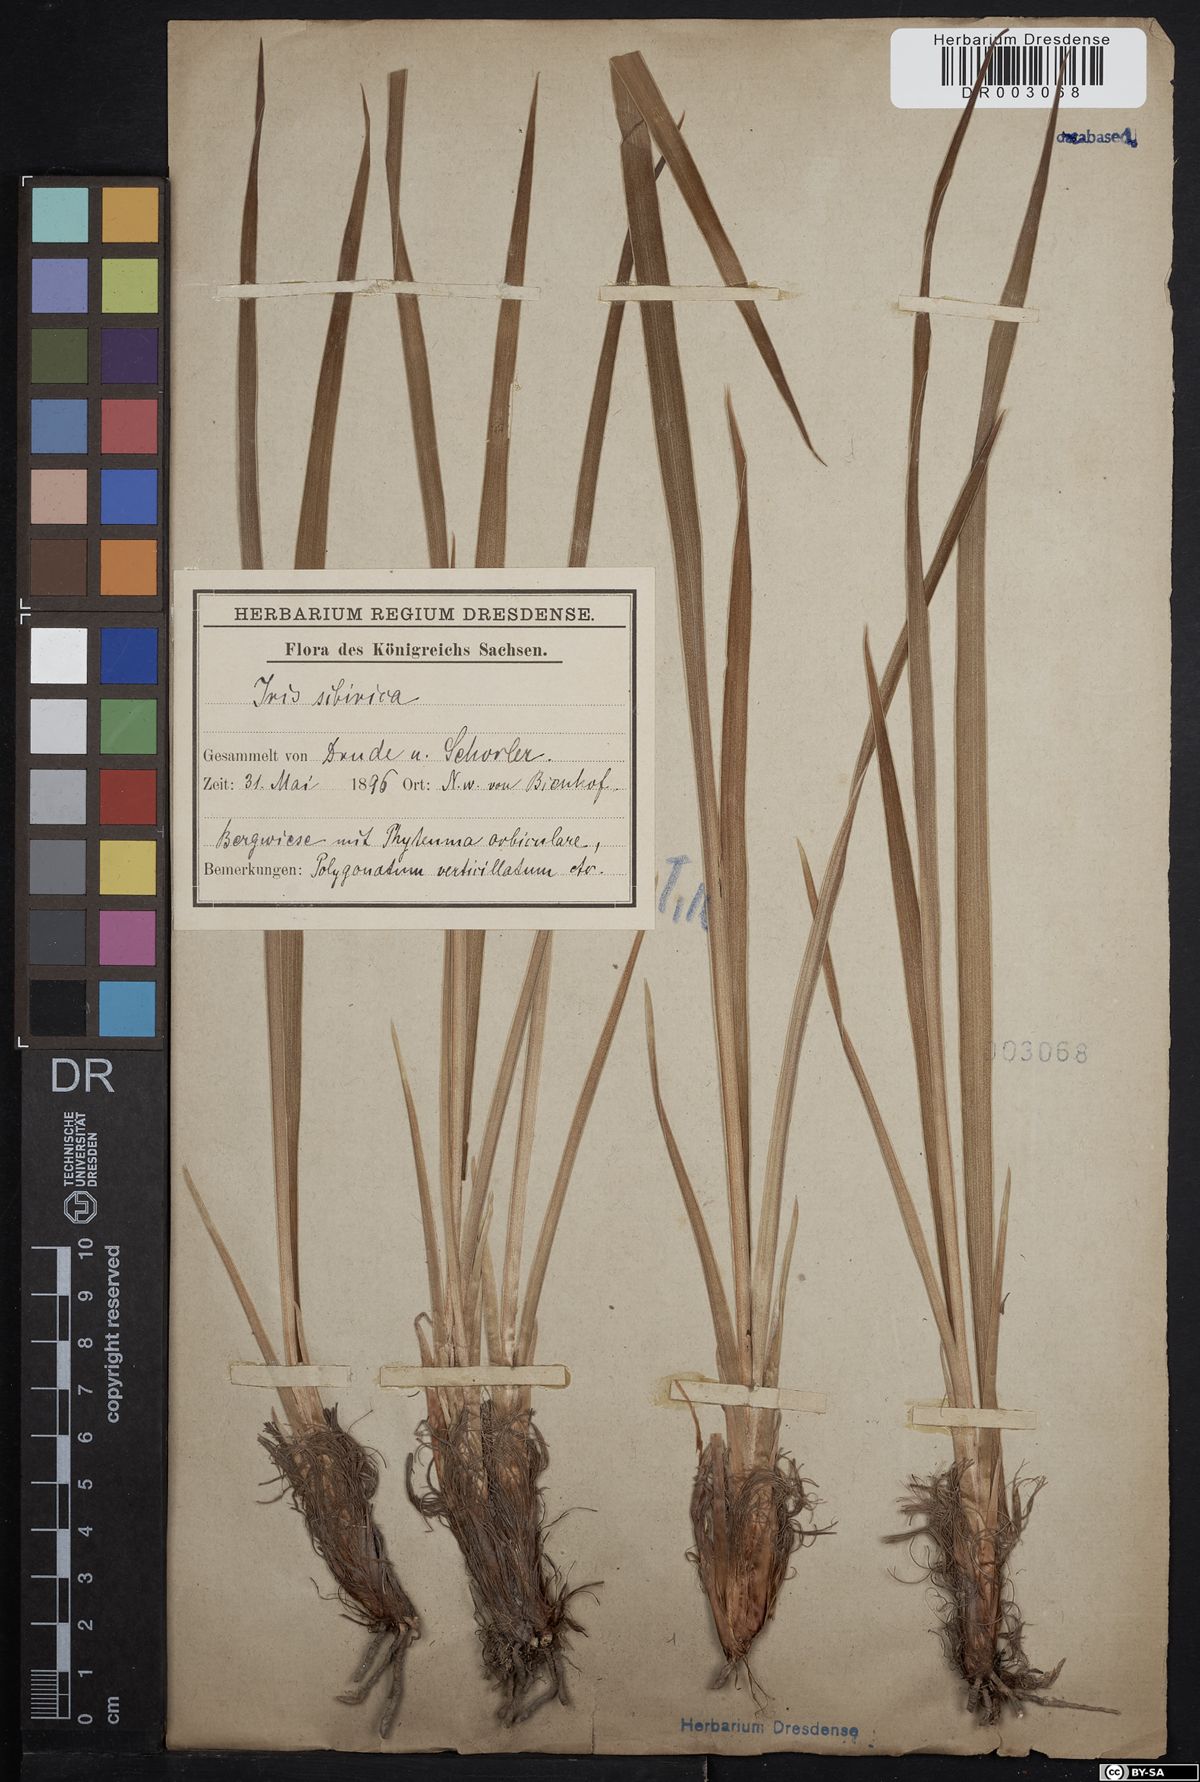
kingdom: Plantae
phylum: Tracheophyta
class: Liliopsida
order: Asparagales
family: Iridaceae
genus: Iris
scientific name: Iris sibirica
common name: Siberian iris
